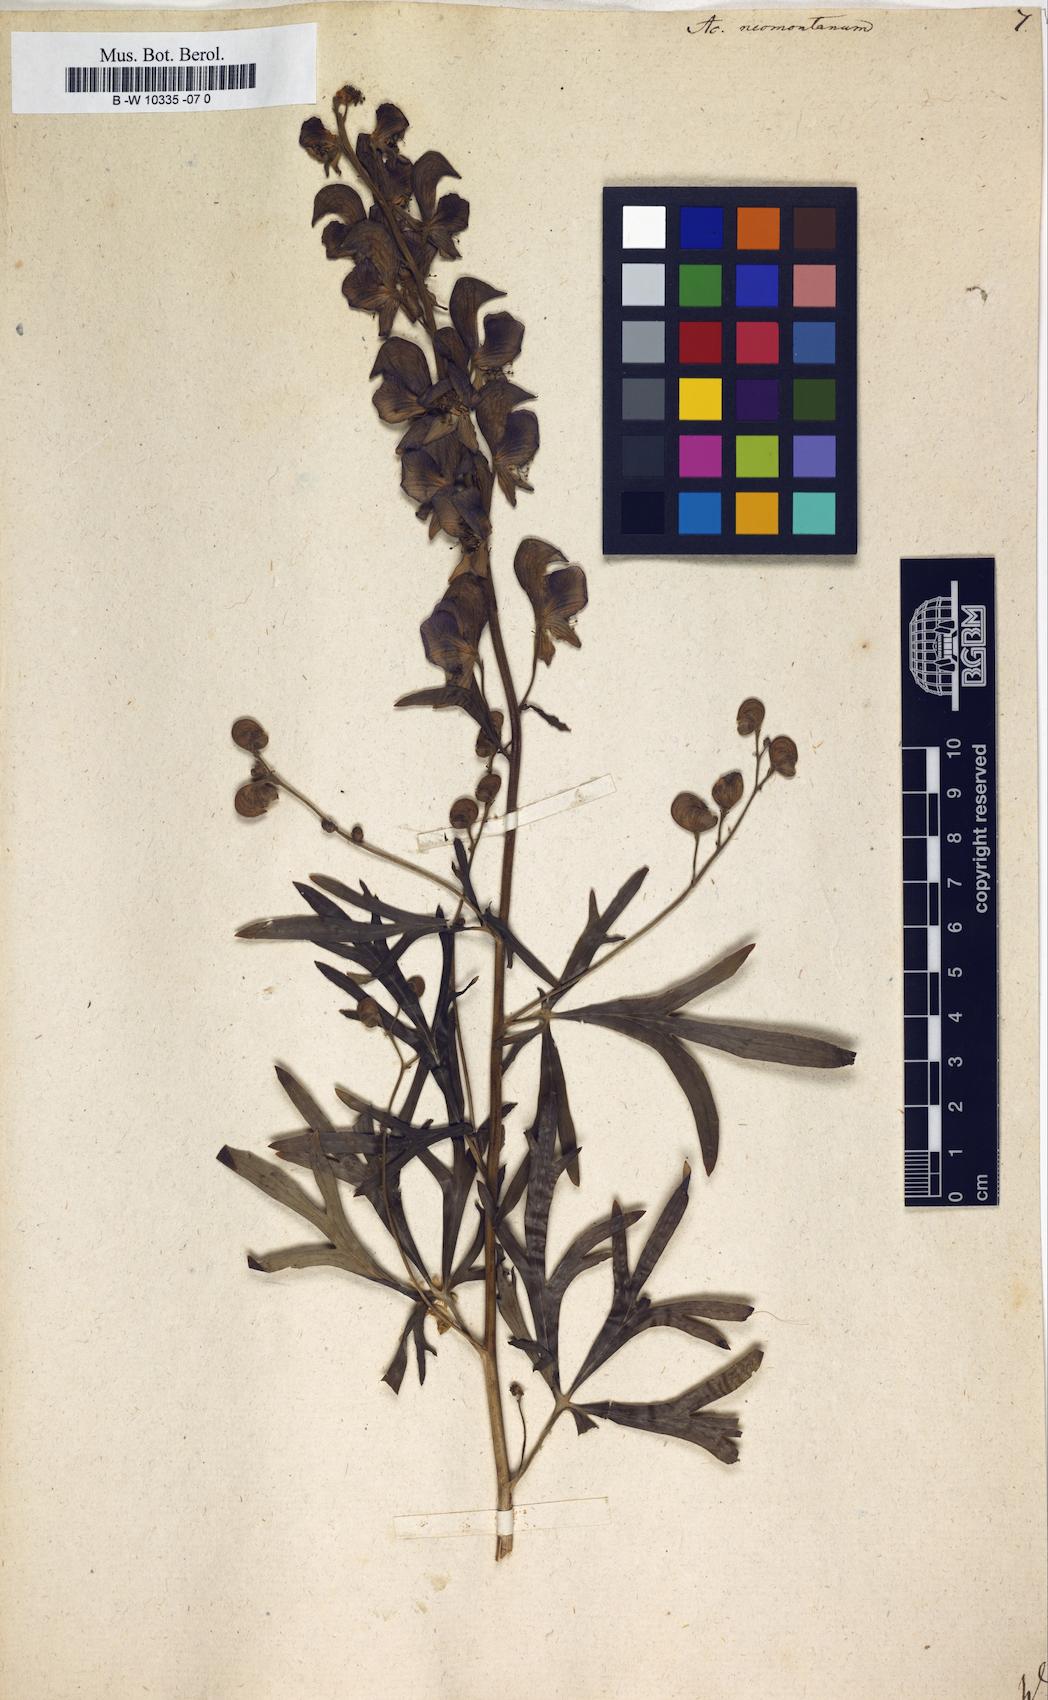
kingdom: Plantae
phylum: Tracheophyta
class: Magnoliopsida
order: Ranunculales
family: Ranunculaceae
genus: Aconitum
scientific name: Aconitum napellus
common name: Garden monkshood
